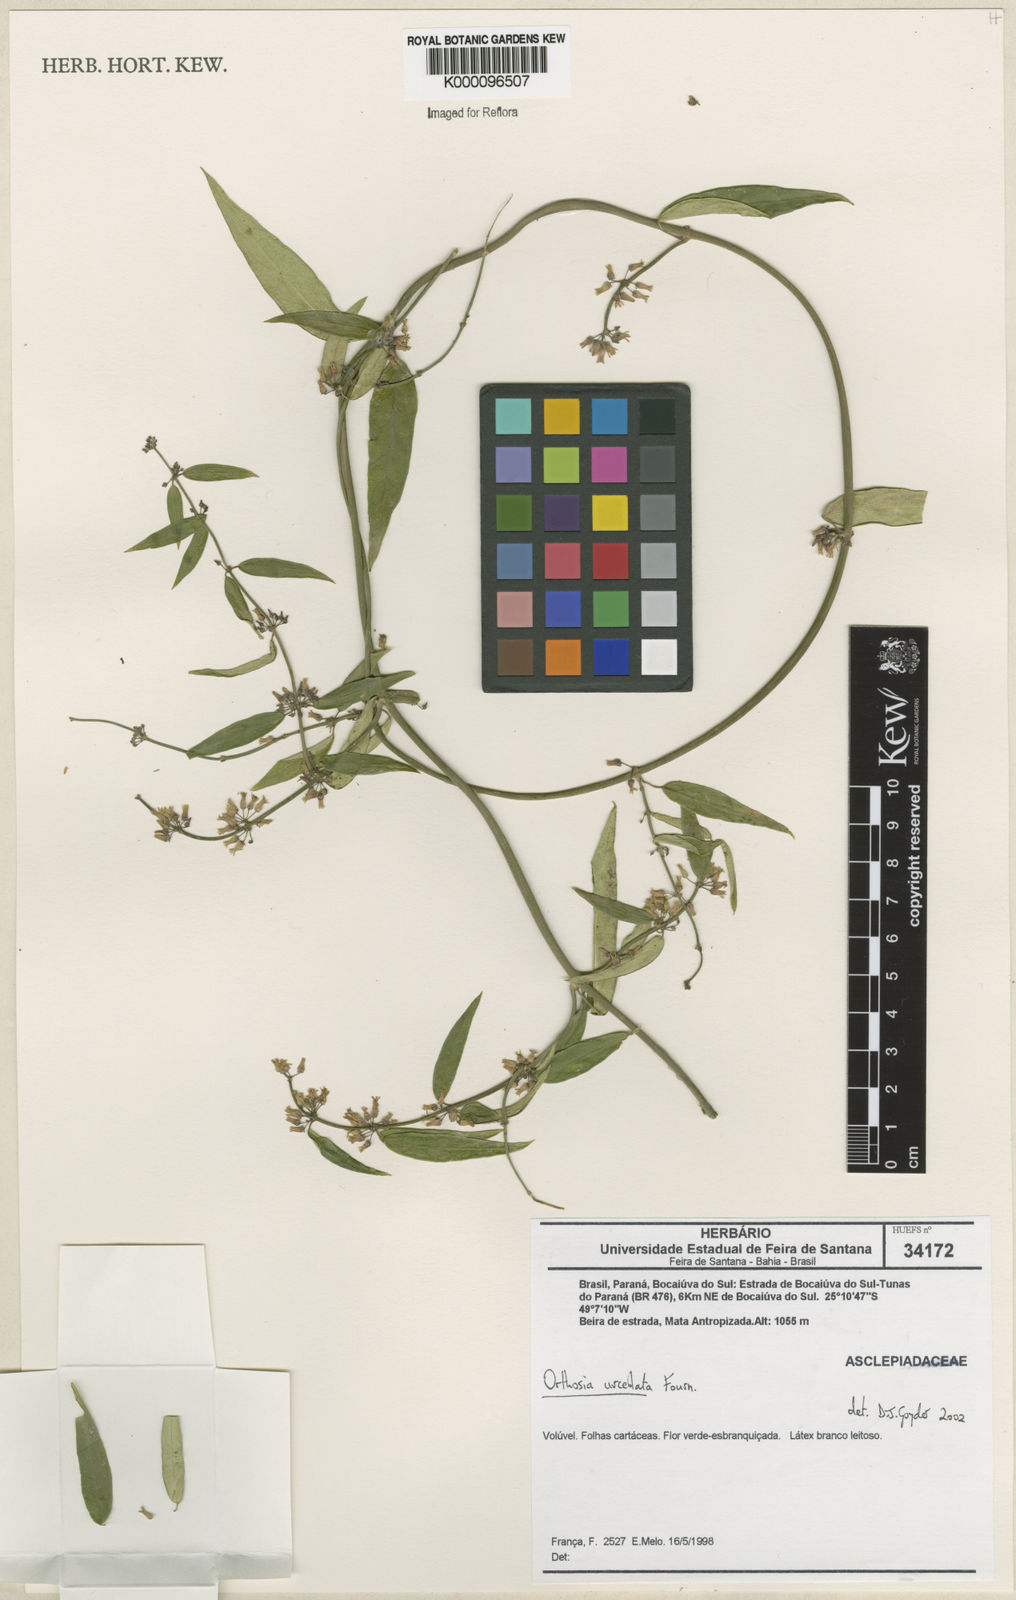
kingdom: Plantae
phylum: Tracheophyta
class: Magnoliopsida
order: Gentianales
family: Apocynaceae
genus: Orthosia
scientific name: Orthosia urceolata
